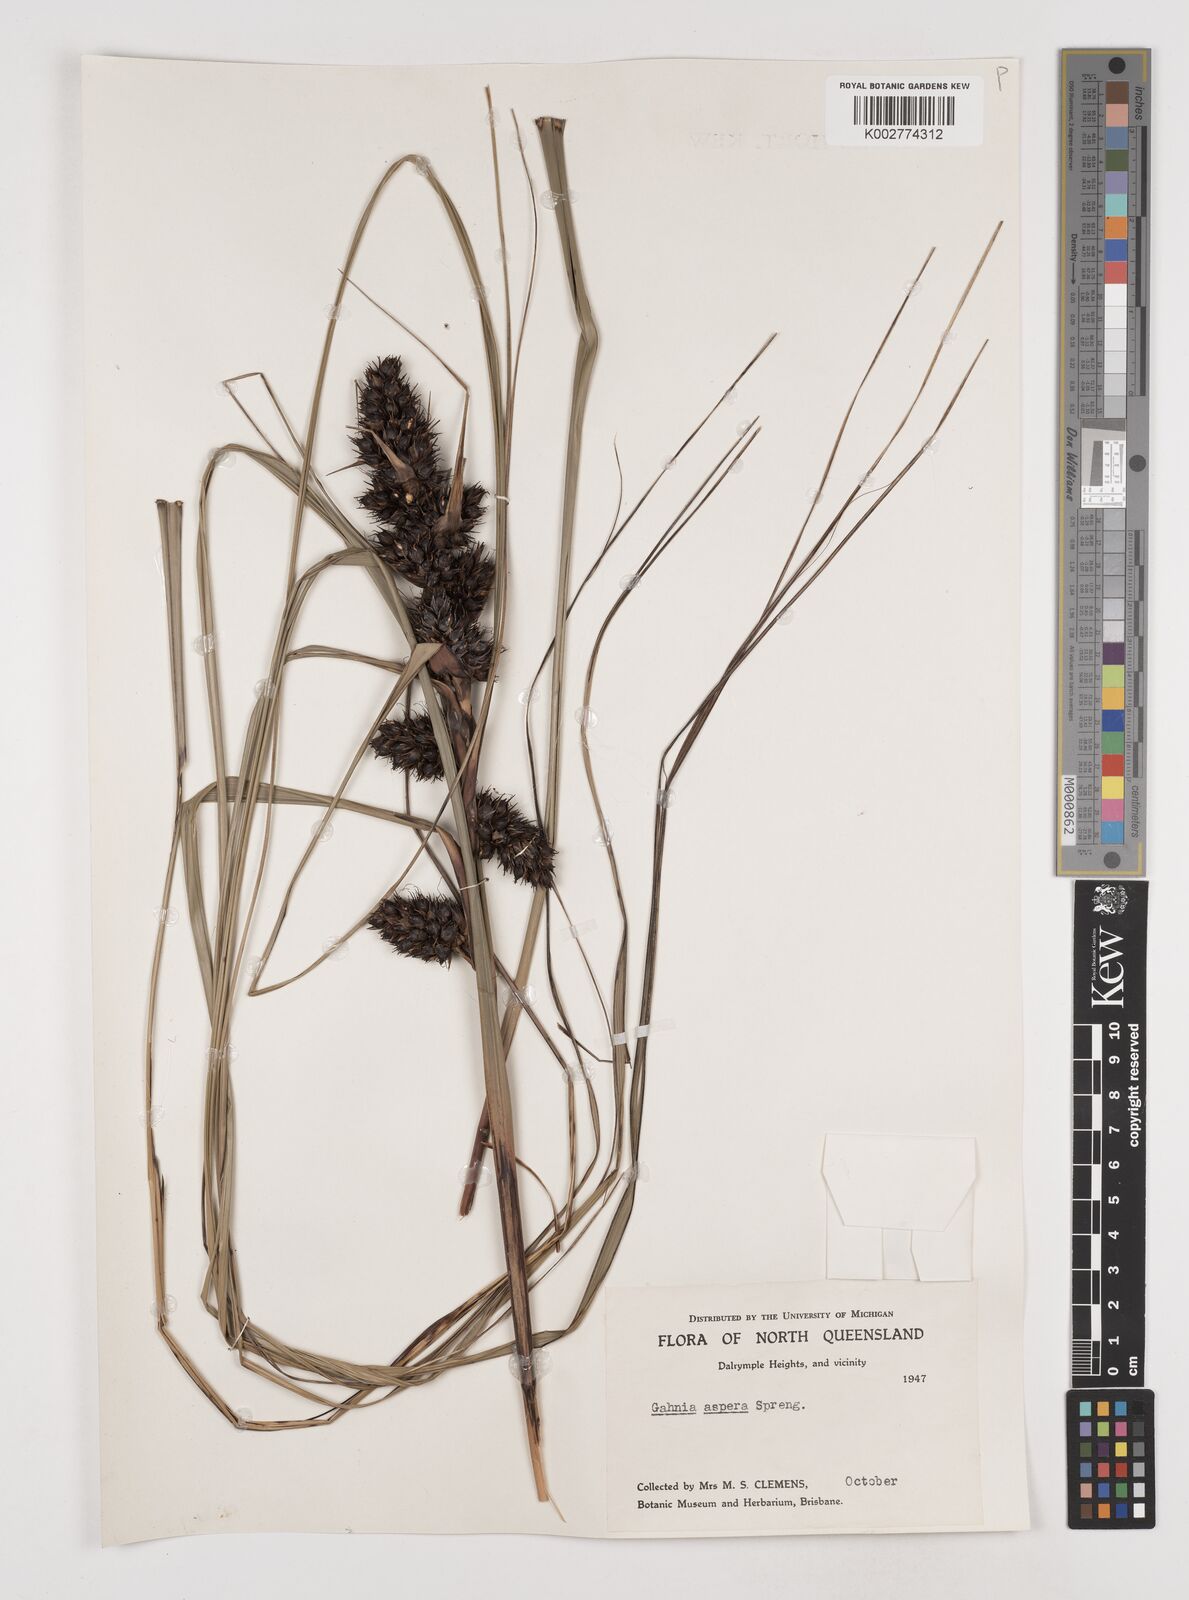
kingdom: Plantae
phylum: Tracheophyta
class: Liliopsida
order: Poales
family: Cyperaceae
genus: Gahnia
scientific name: Gahnia aspera
